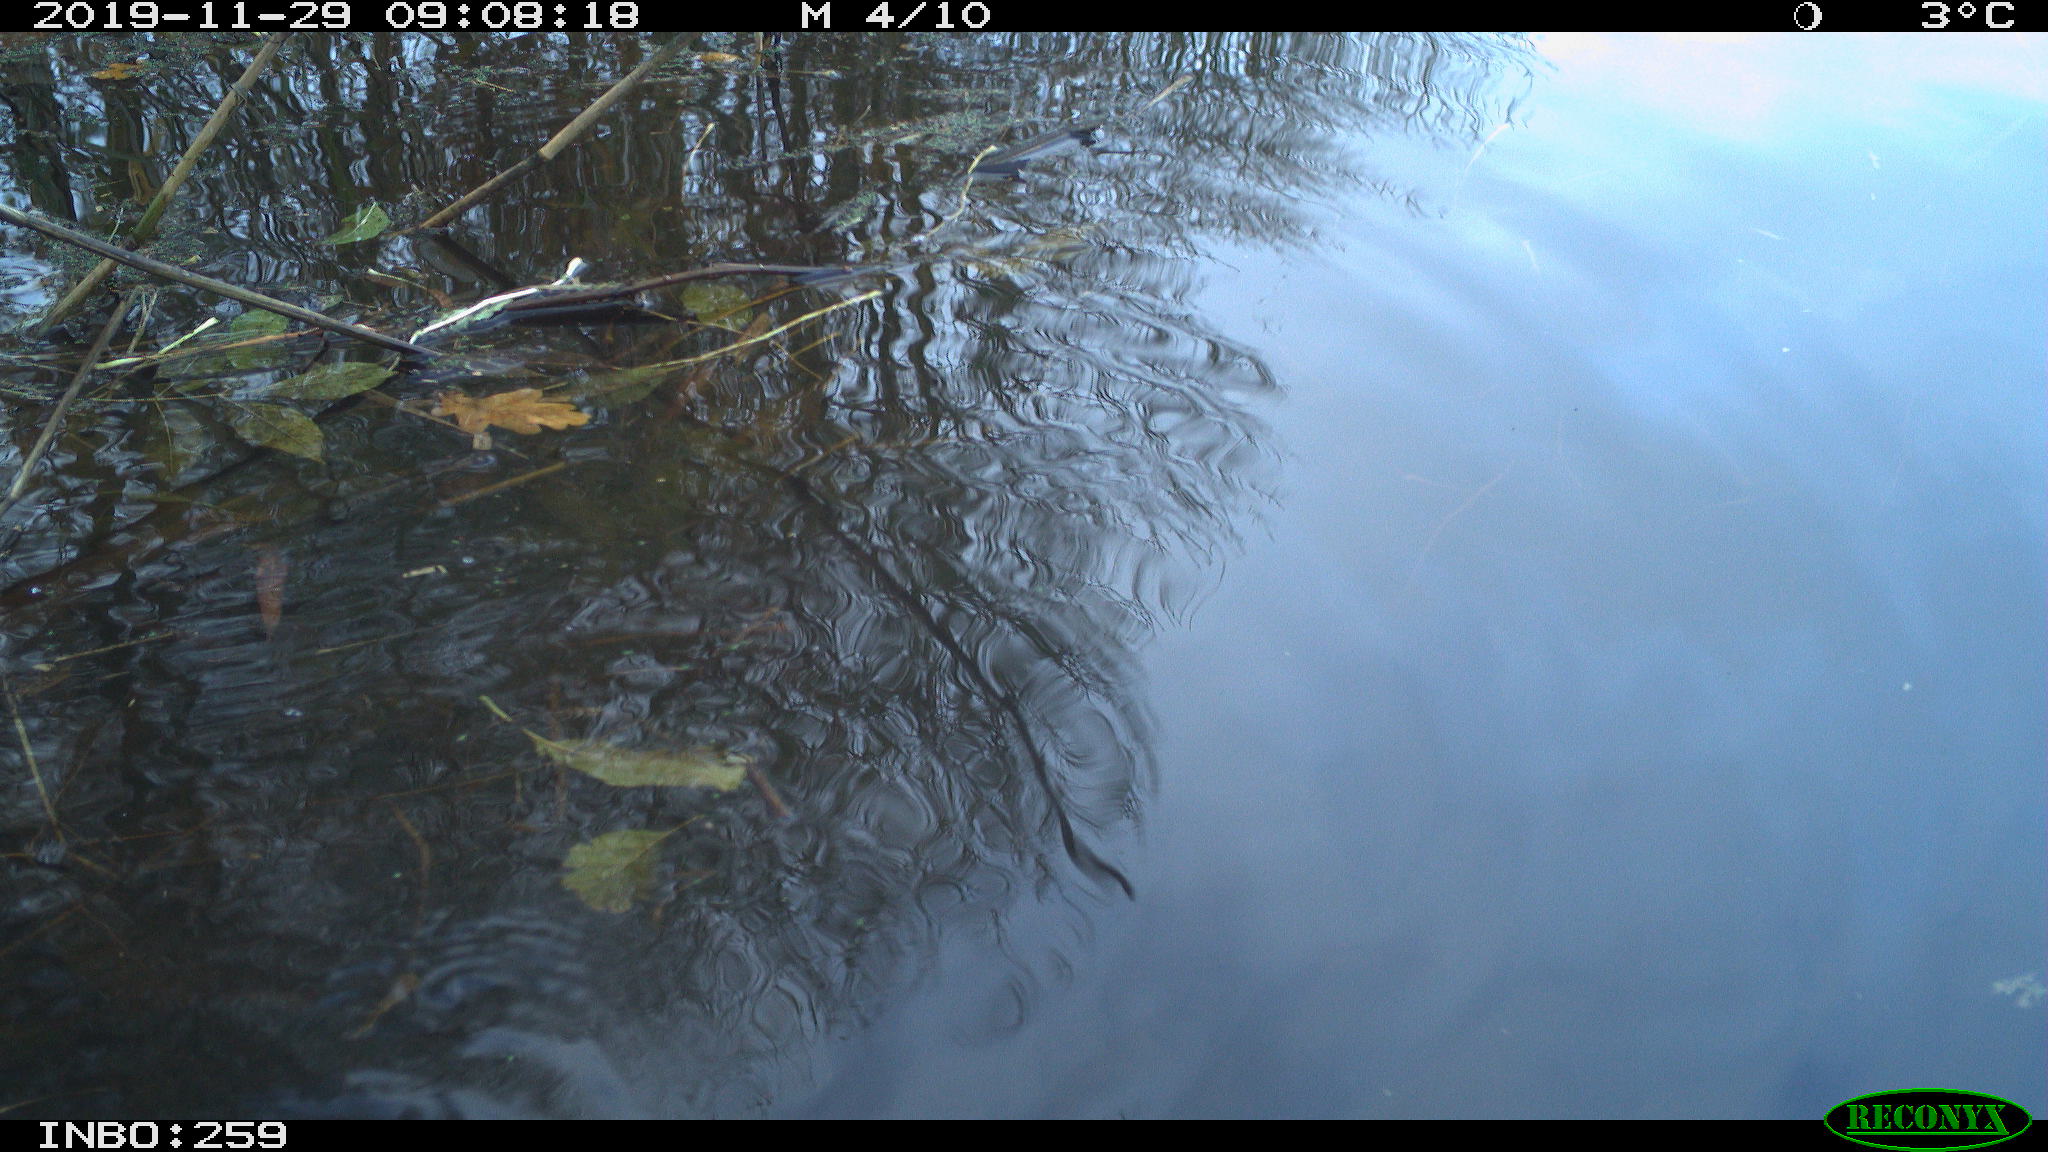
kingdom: Animalia
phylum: Chordata
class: Aves
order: Gruiformes
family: Rallidae
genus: Gallinula
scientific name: Gallinula chloropus
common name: Common moorhen
